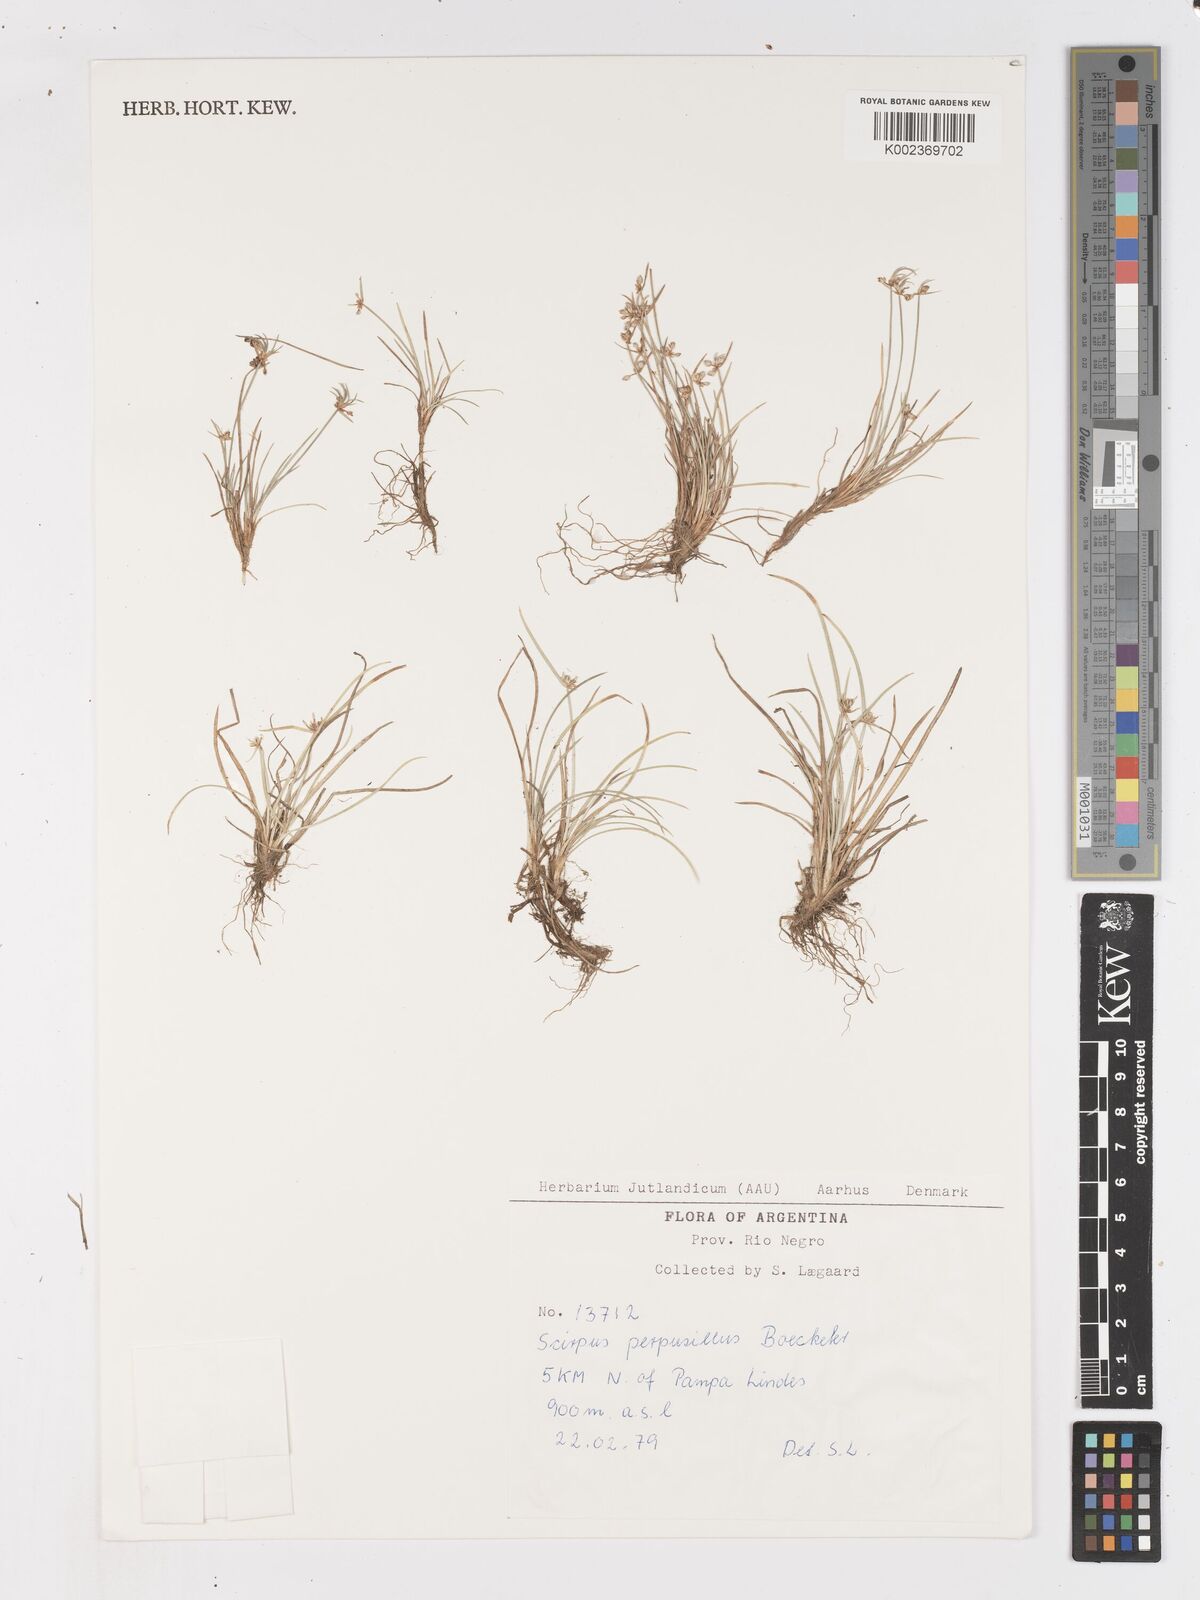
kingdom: Plantae
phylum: Tracheophyta
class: Liliopsida
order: Poales
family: Cyperaceae
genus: Isolepis
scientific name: Isolepis ranko
